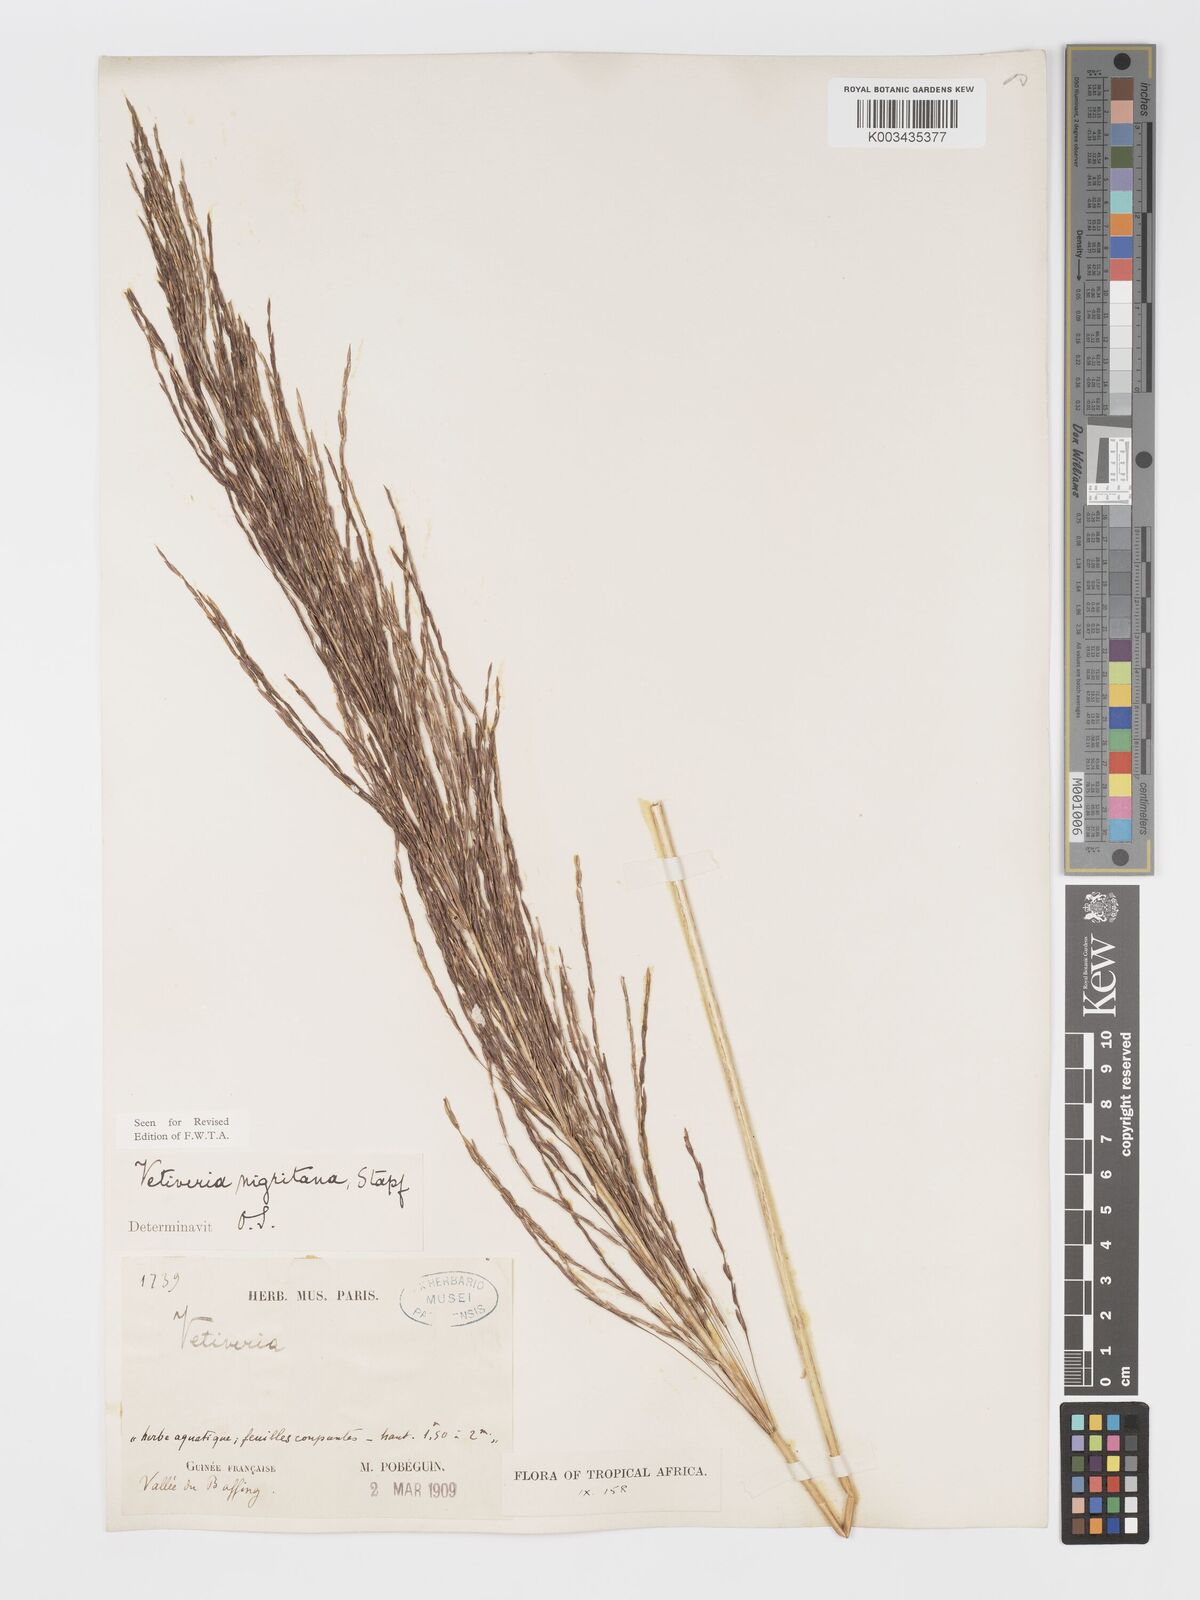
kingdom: Plantae
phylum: Tracheophyta
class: Liliopsida
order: Poales
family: Poaceae
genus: Chrysopogon
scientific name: Chrysopogon nigritanus
